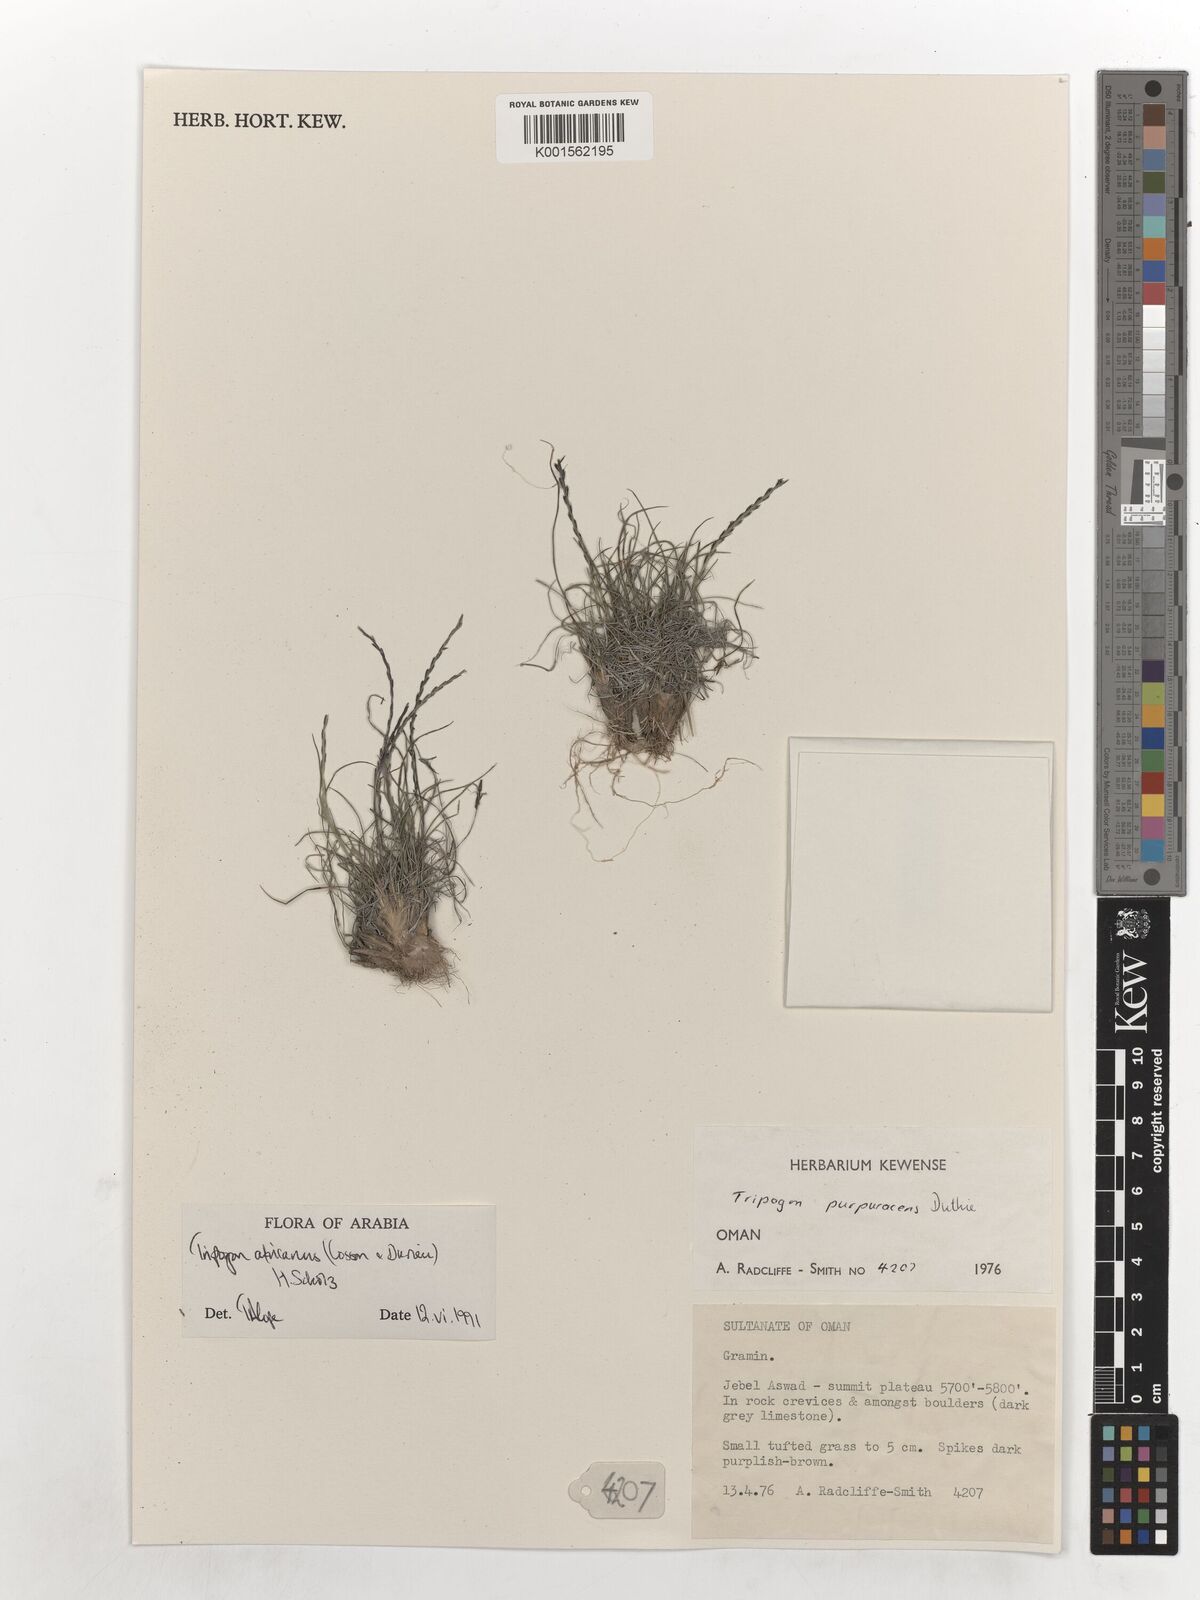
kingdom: Plantae
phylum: Tracheophyta
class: Liliopsida
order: Poales
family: Poaceae
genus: Tripogon
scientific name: Tripogon africanus
